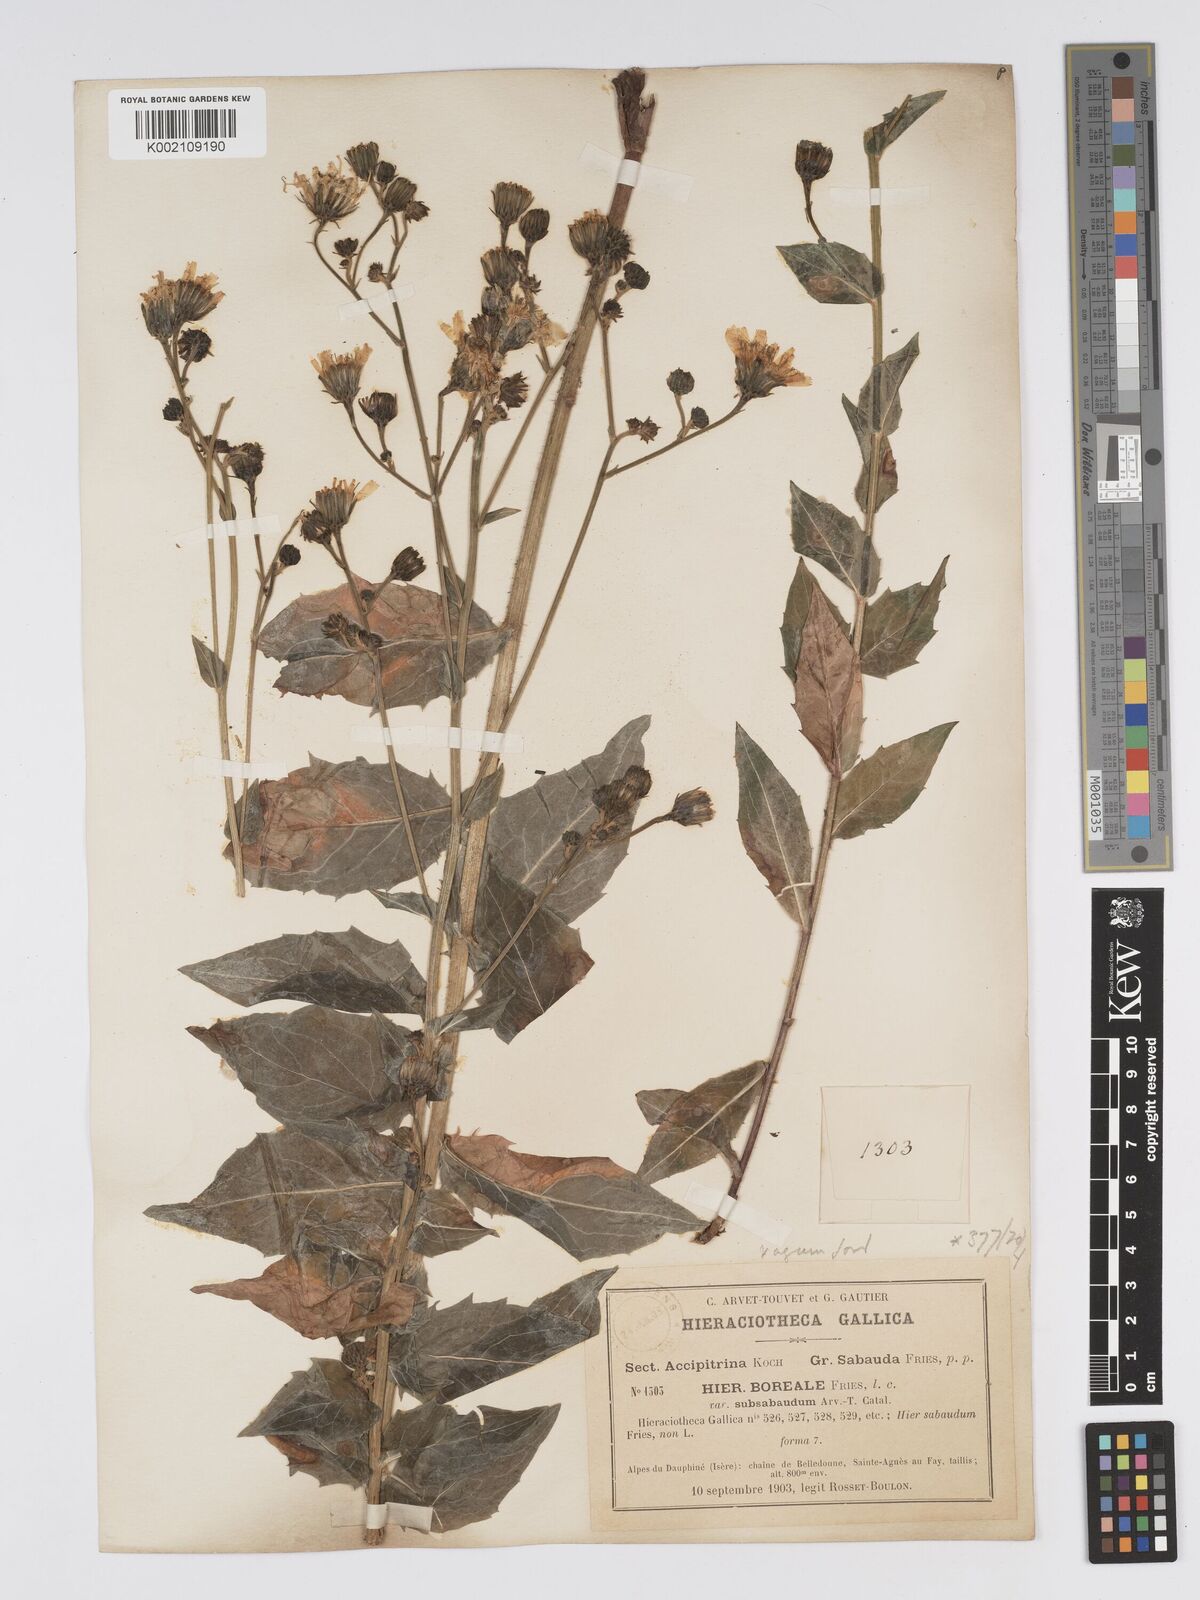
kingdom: Plantae
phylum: Tracheophyta
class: Magnoliopsida
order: Asterales
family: Asteraceae
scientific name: Asteraceae
